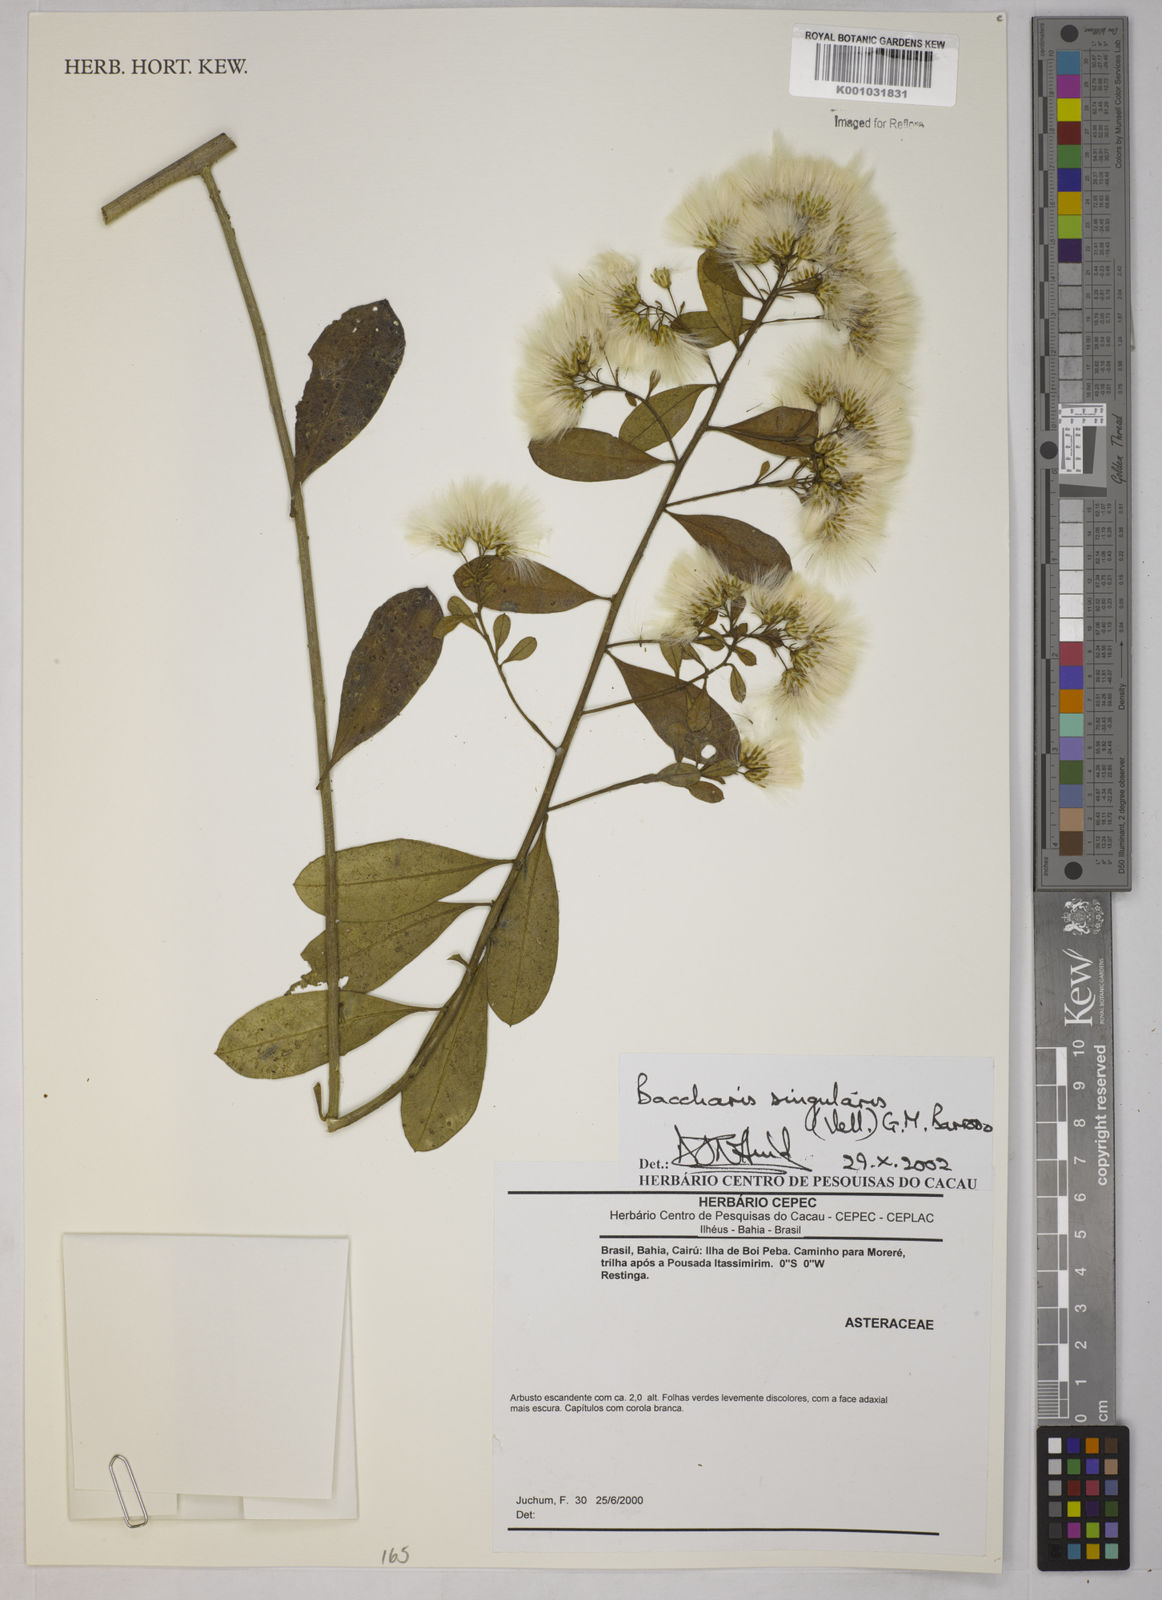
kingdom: Plantae
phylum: Tracheophyta
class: Magnoliopsida
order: Asterales
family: Asteraceae
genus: Baccharis
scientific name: Baccharis singularis
